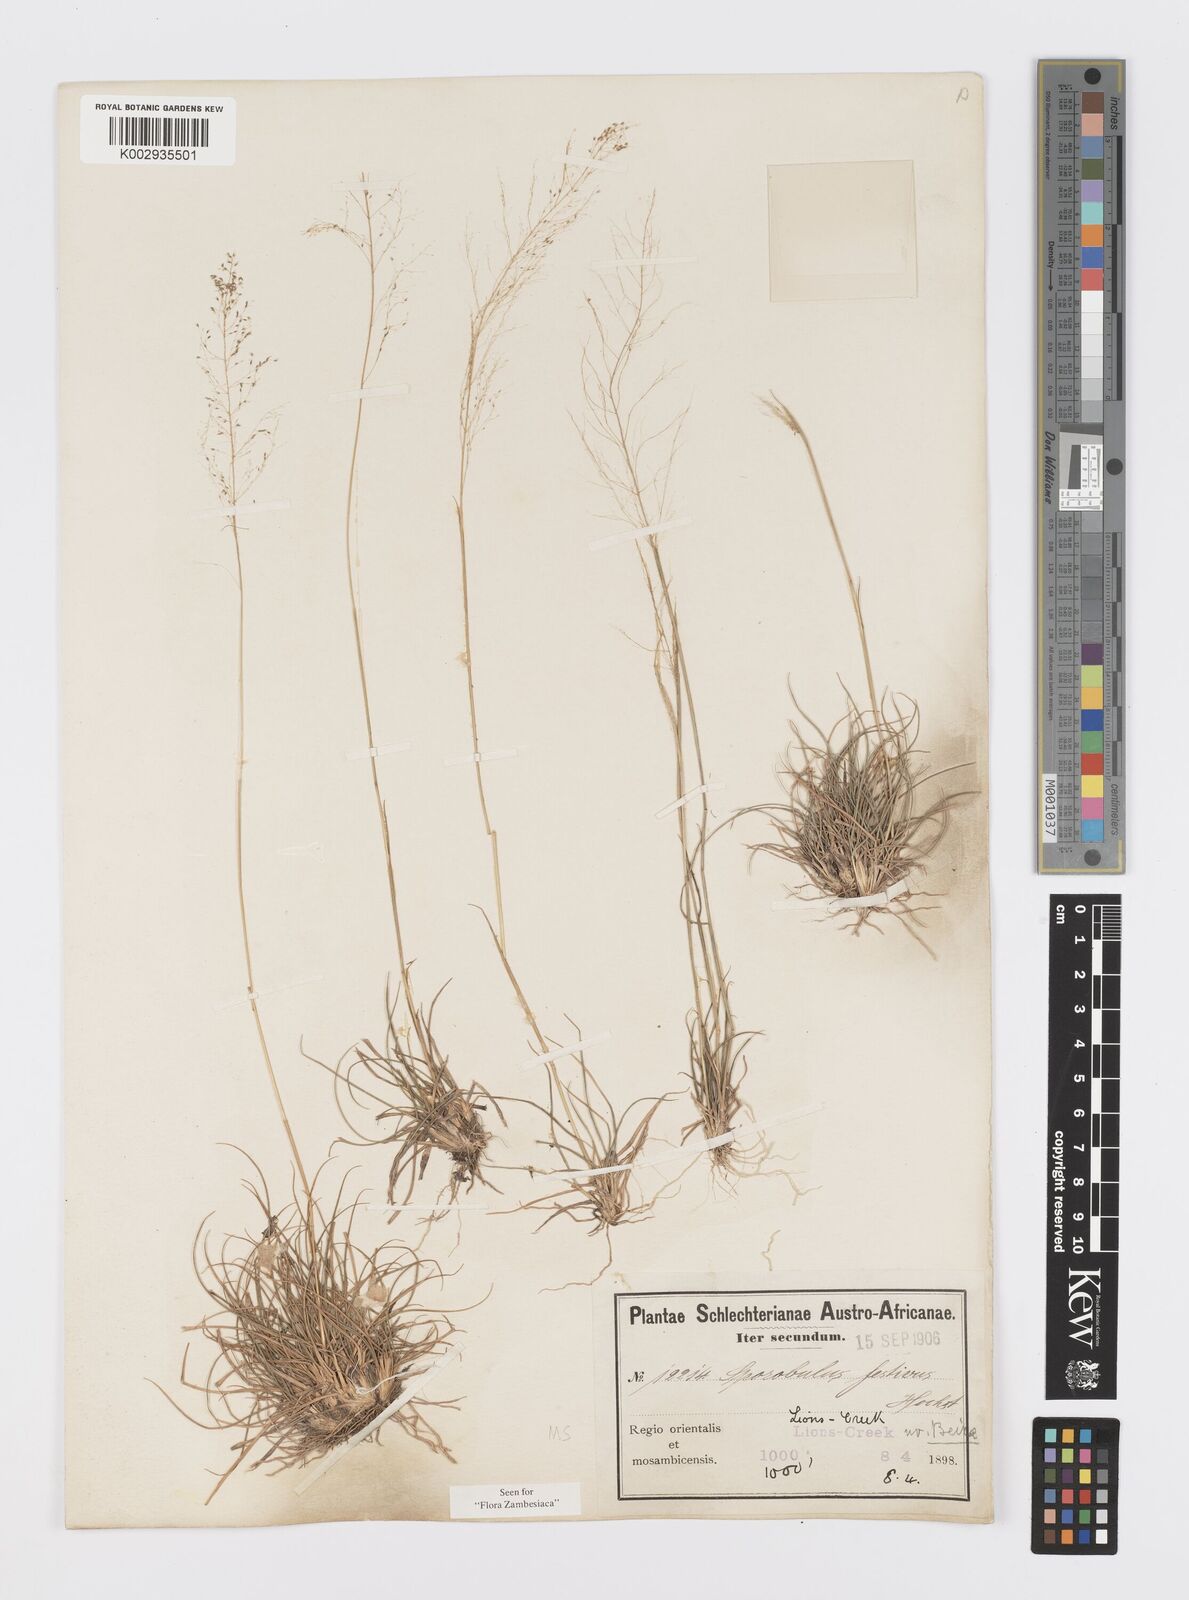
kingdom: Plantae
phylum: Tracheophyta
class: Liliopsida
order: Poales
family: Poaceae
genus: Sporobolus
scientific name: Sporobolus festivus
